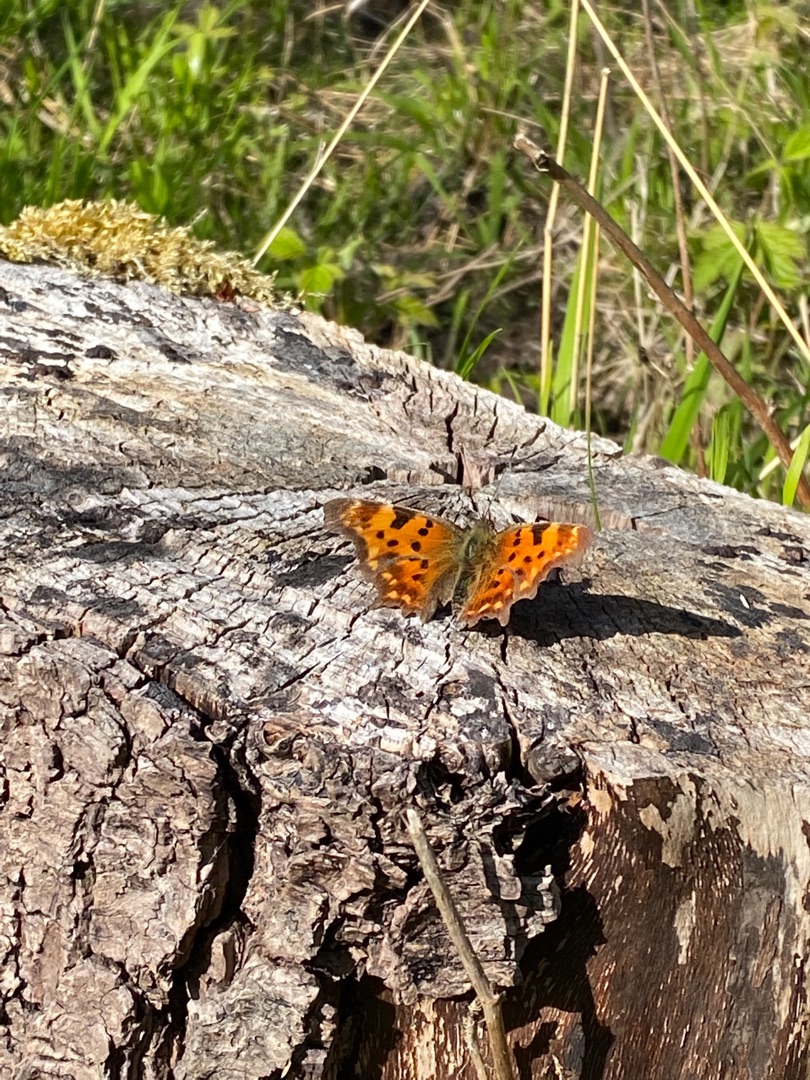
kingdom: Animalia
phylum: Arthropoda
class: Insecta
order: Lepidoptera
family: Nymphalidae
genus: Polygonia
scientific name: Polygonia c-album
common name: Det hvide C
